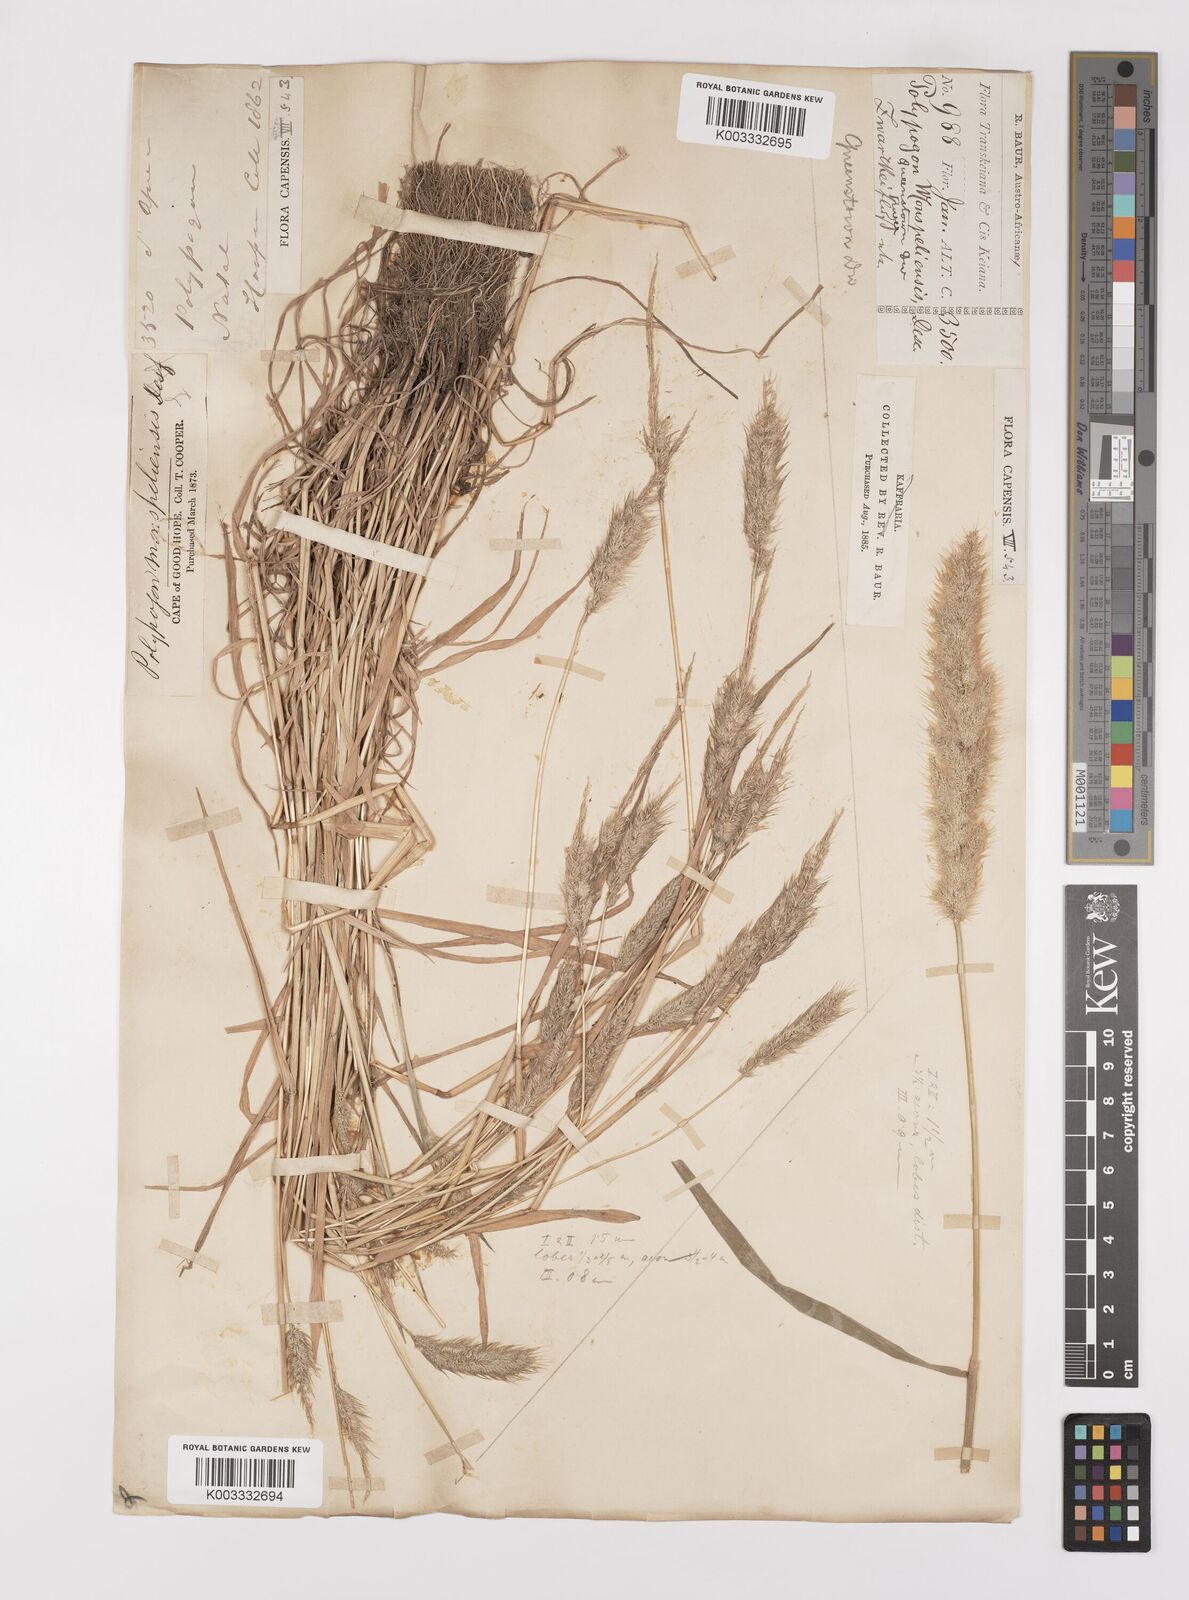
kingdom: Plantae
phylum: Tracheophyta
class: Liliopsida
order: Poales
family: Poaceae
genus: Polypogon
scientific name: Polypogon monspeliensis
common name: Annual rabbitsfoot grass
